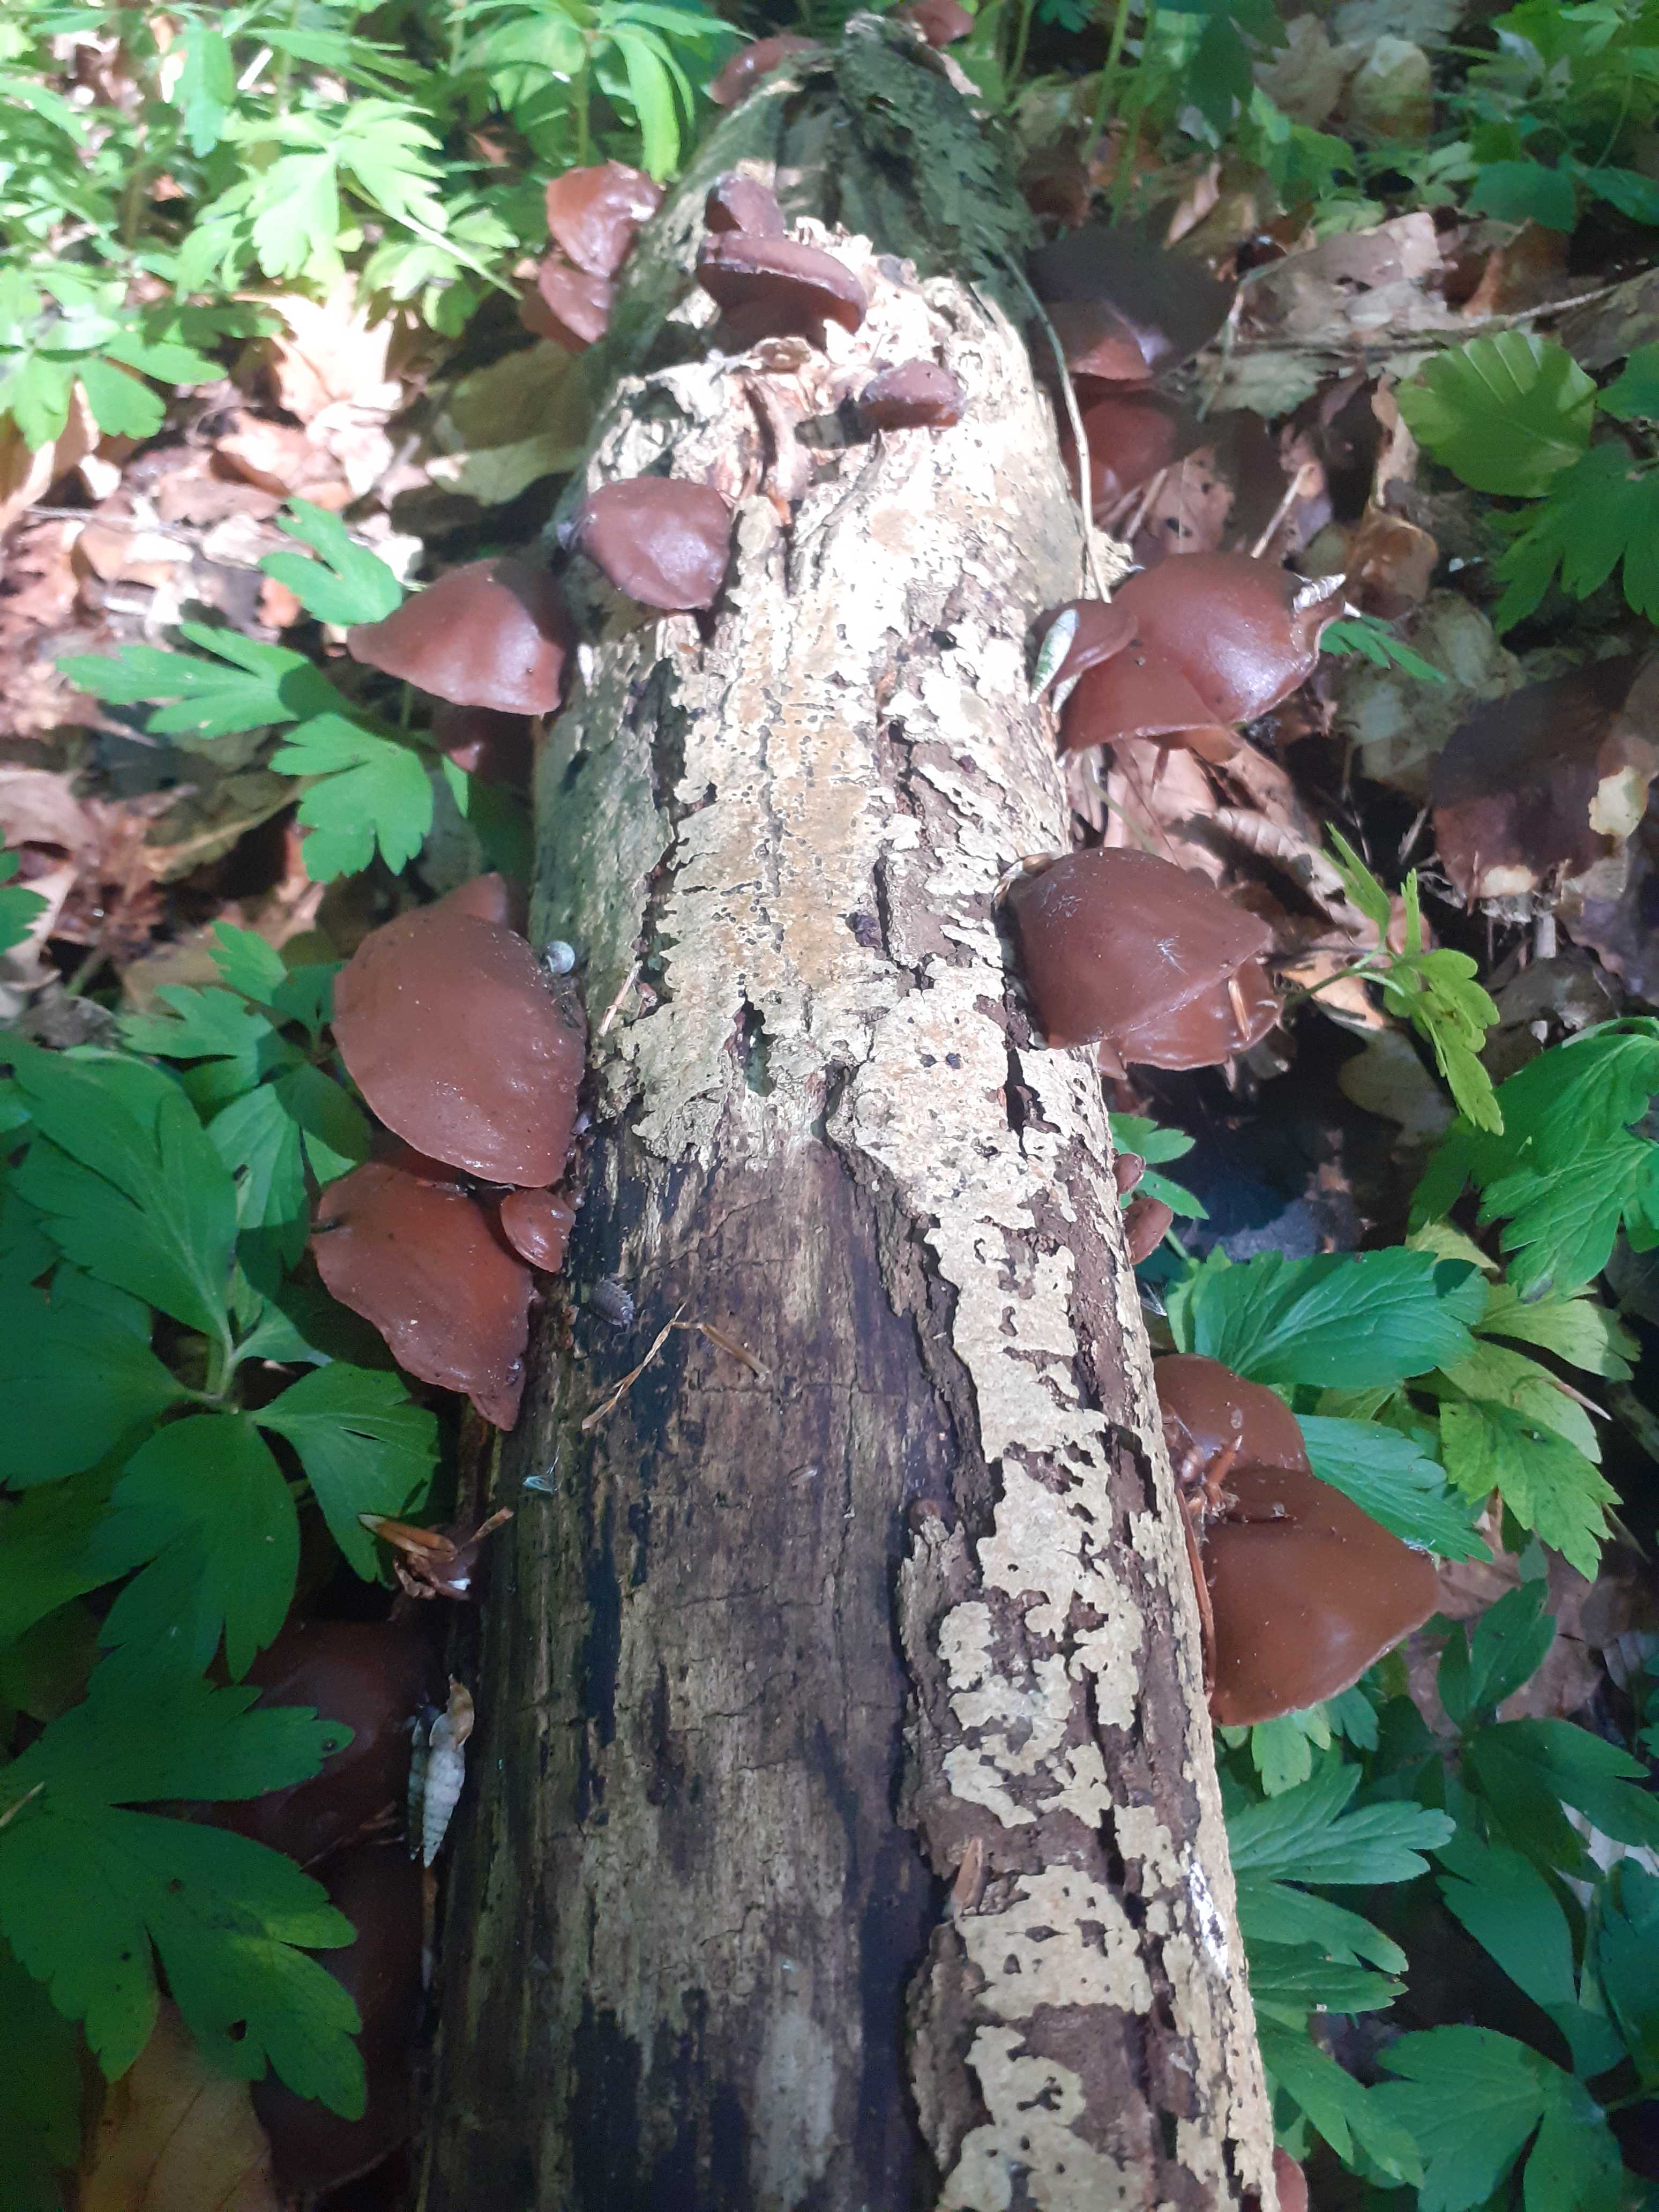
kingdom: Fungi
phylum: Basidiomycota
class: Agaricomycetes
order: Auriculariales
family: Auriculariaceae
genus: Auricularia
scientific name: Auricularia auricula-judae
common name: almindelig judasøre
